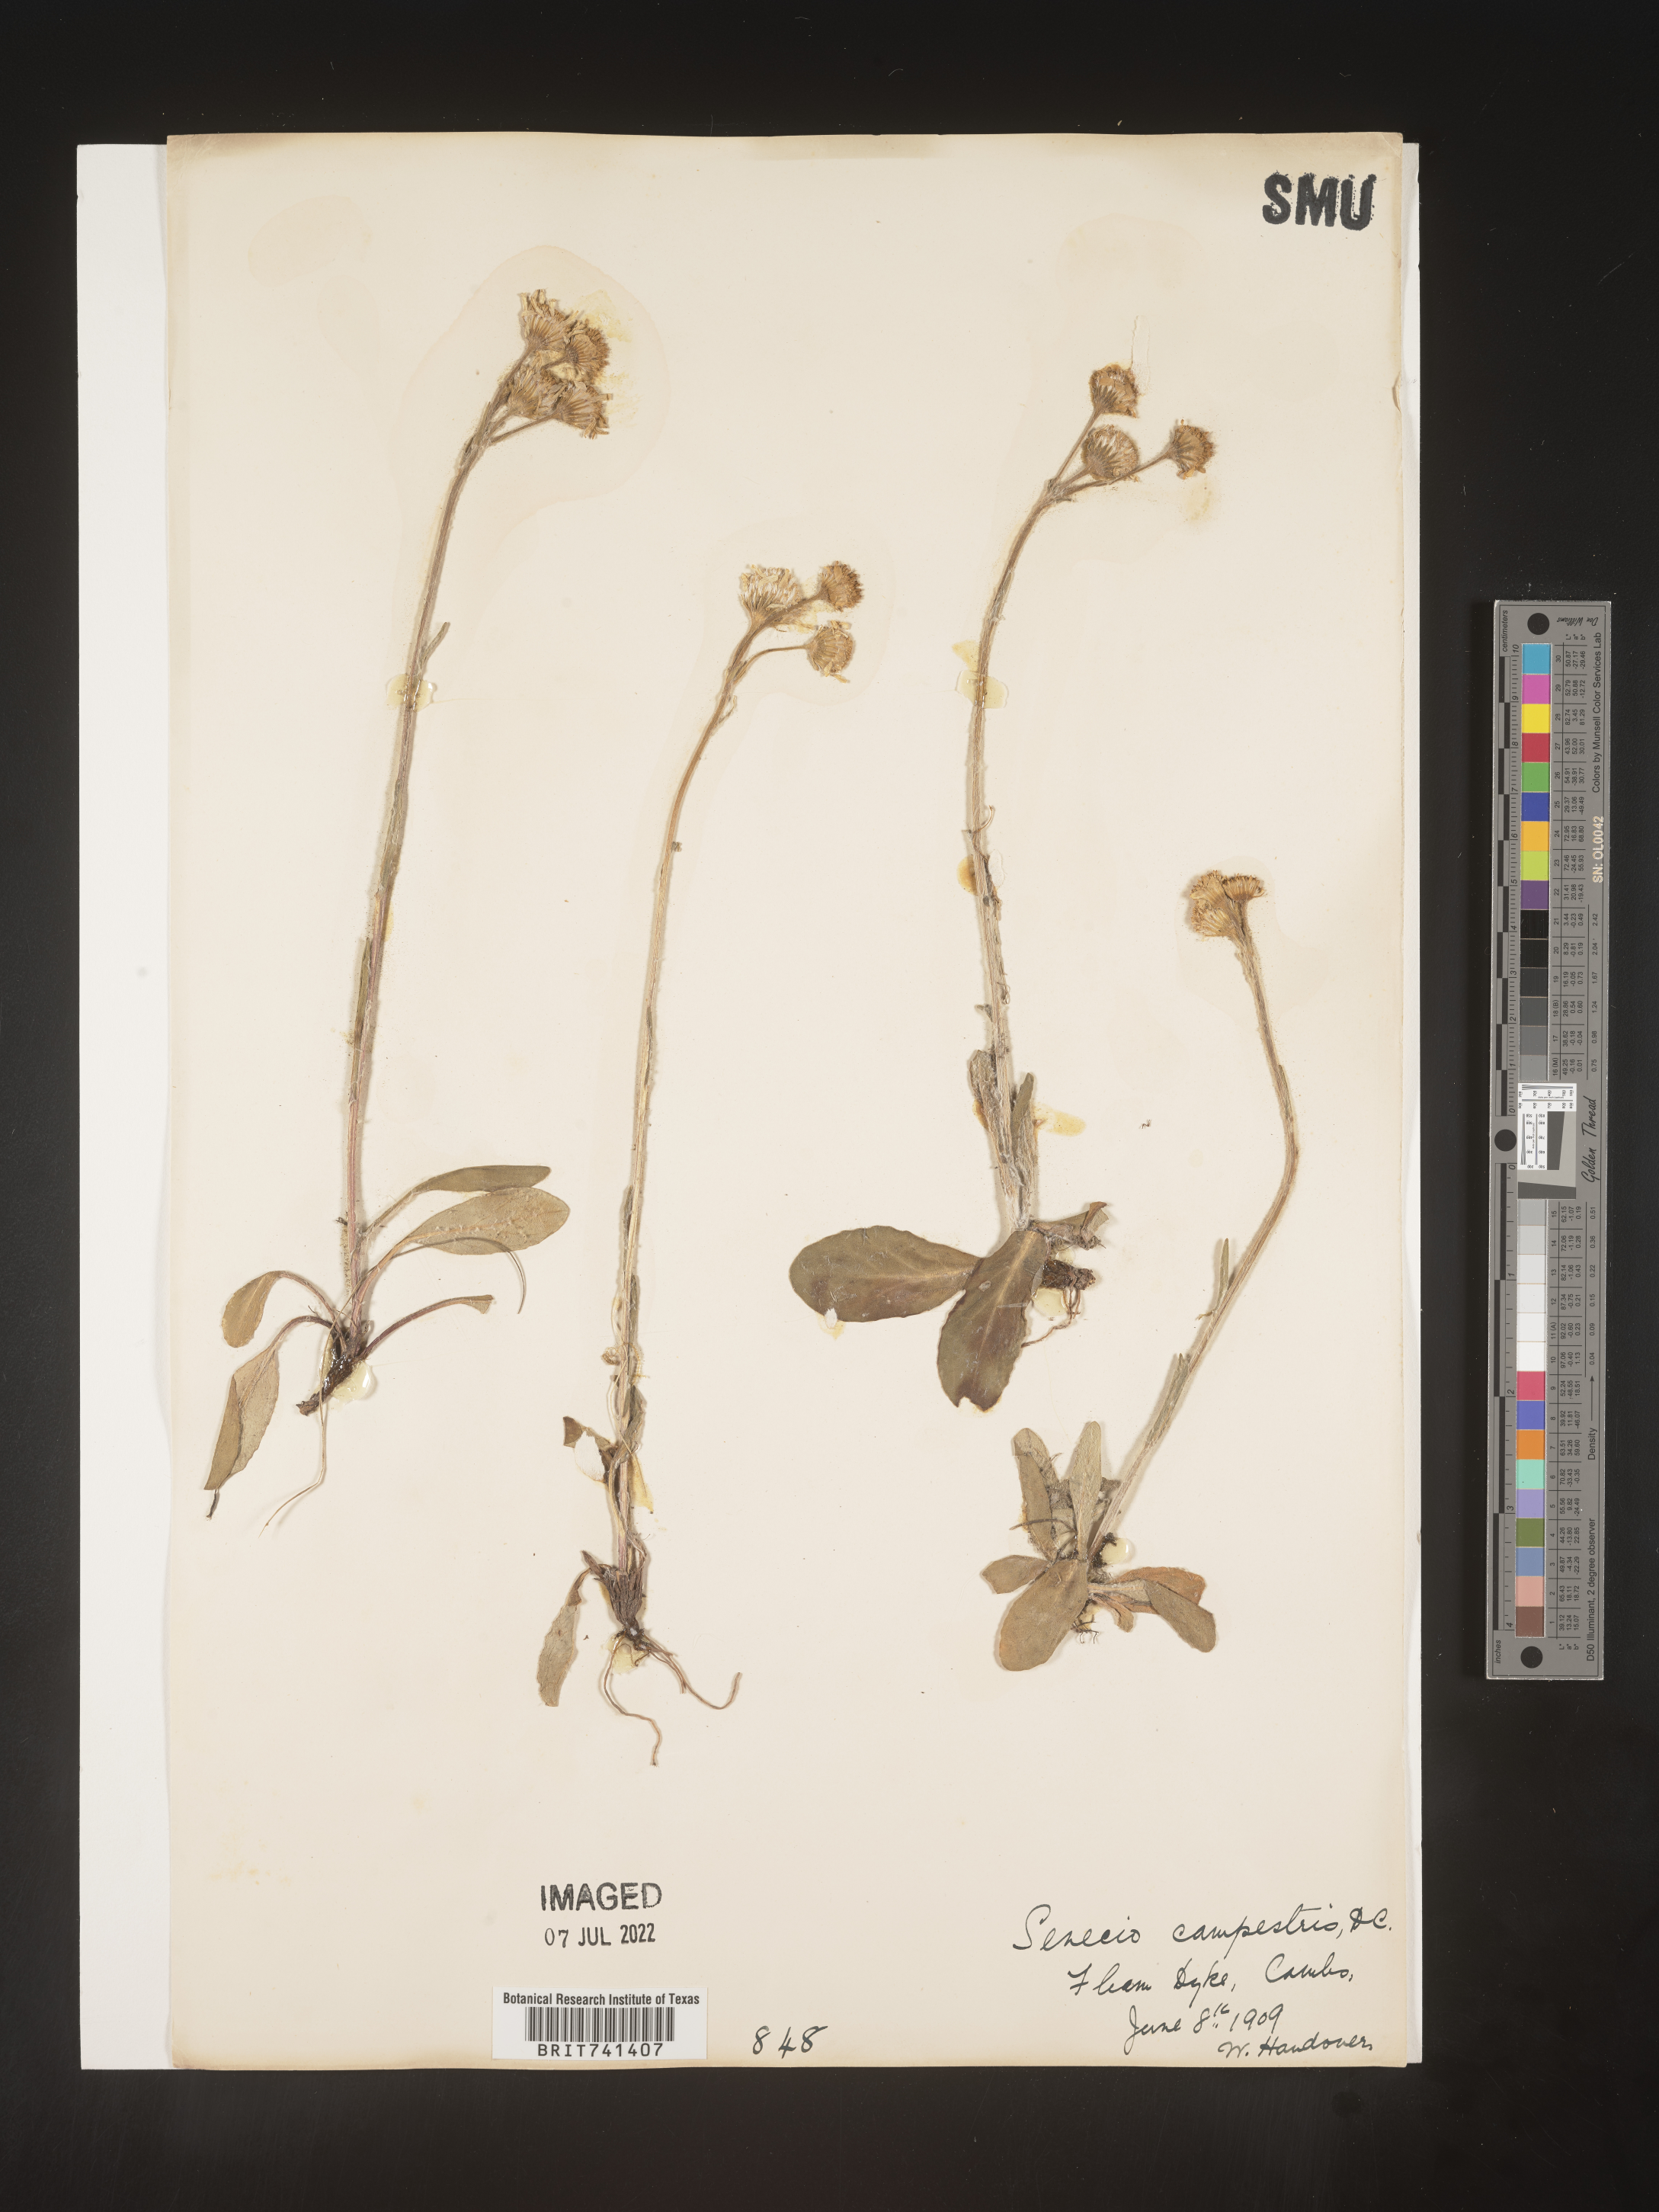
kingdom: Plantae
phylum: Tracheophyta
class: Magnoliopsida
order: Asterales
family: Asteraceae
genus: Senecio
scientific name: Senecio
